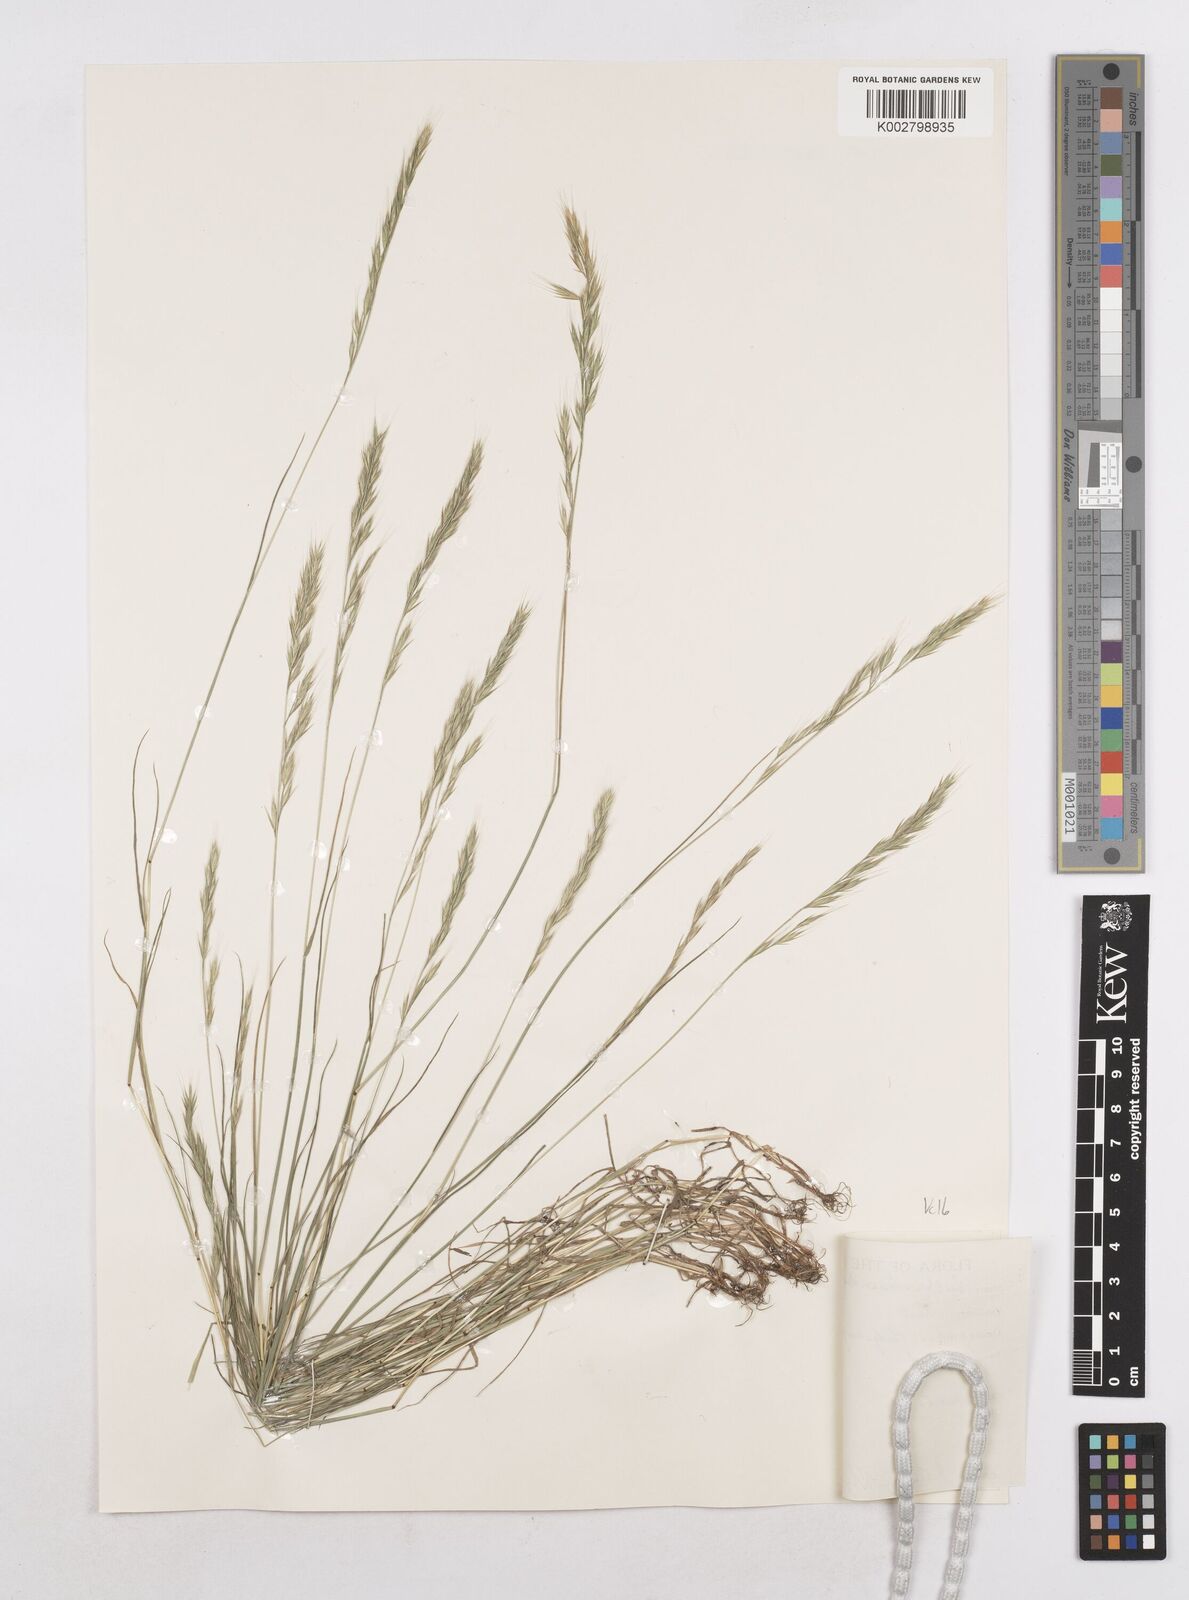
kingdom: Plantae
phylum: Tracheophyta
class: Liliopsida
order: Poales
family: Poaceae
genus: Festuca
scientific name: Festuca bromoides
